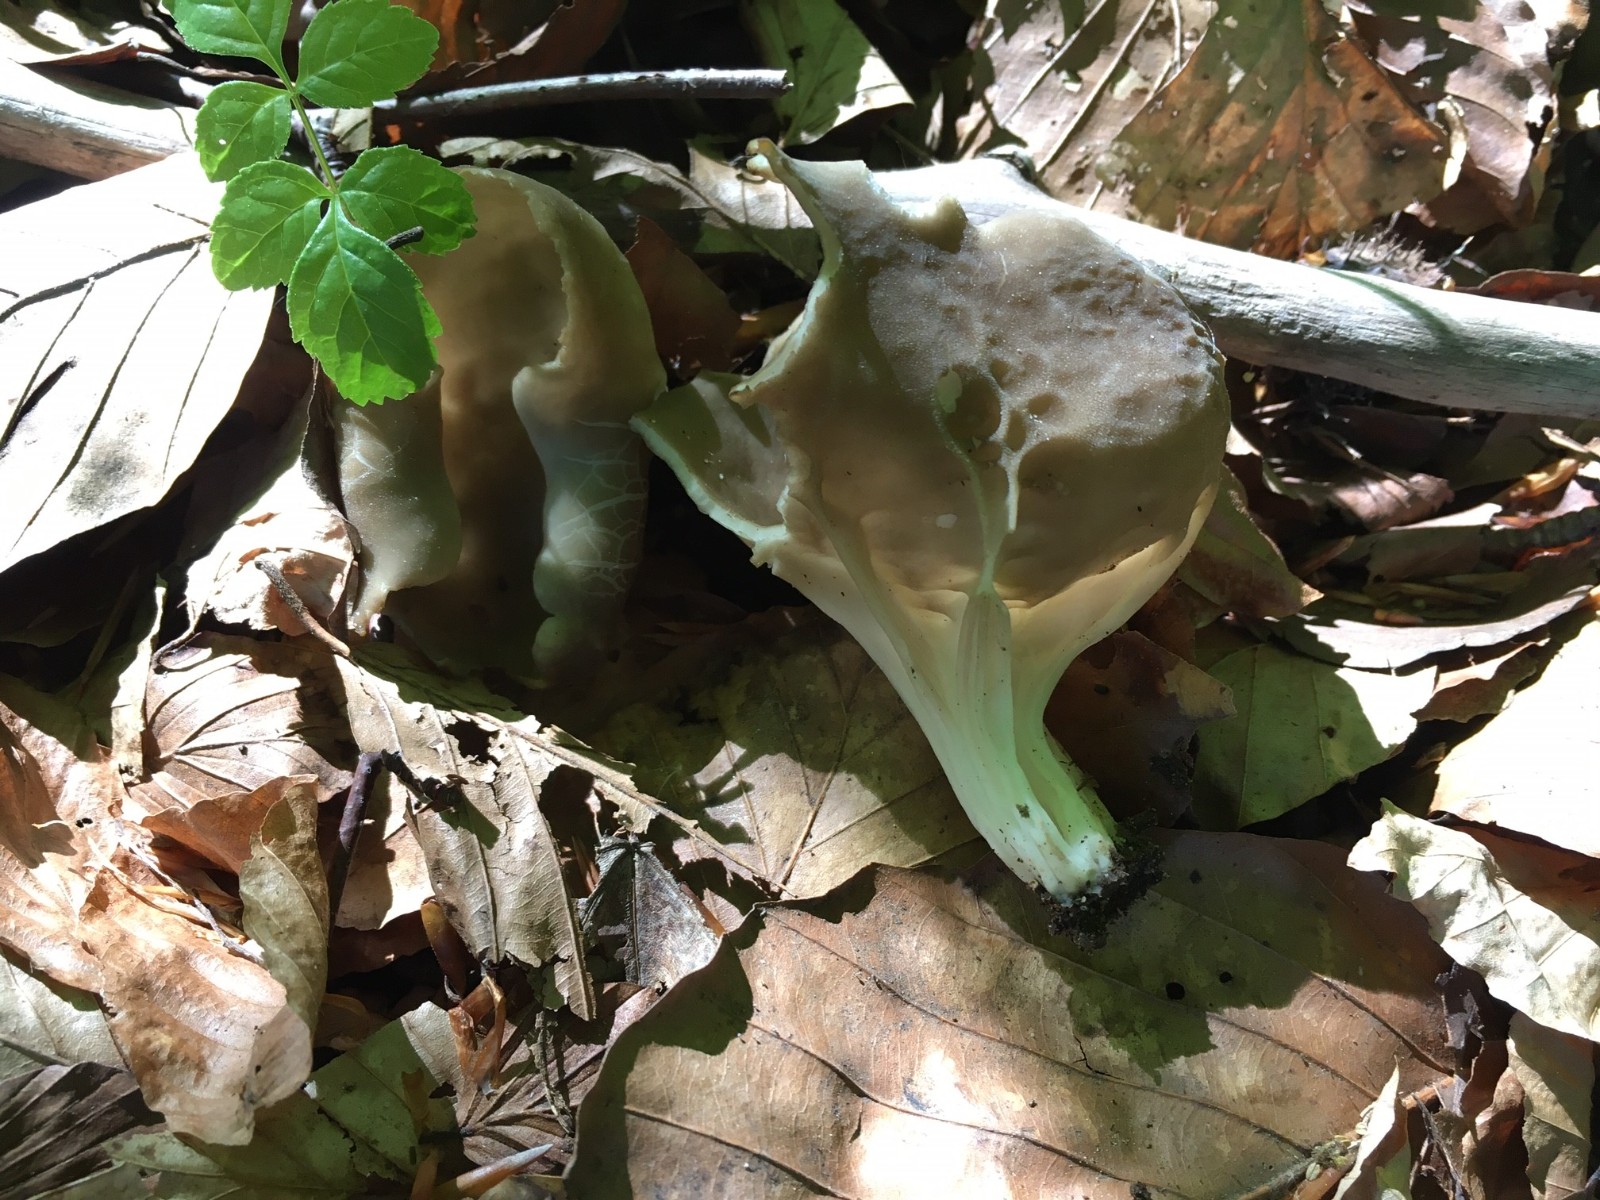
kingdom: Fungi
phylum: Ascomycota
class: Pezizomycetes
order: Pezizales
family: Helvellaceae
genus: Helvella
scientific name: Helvella acetabulum
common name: pokal-foldhat
